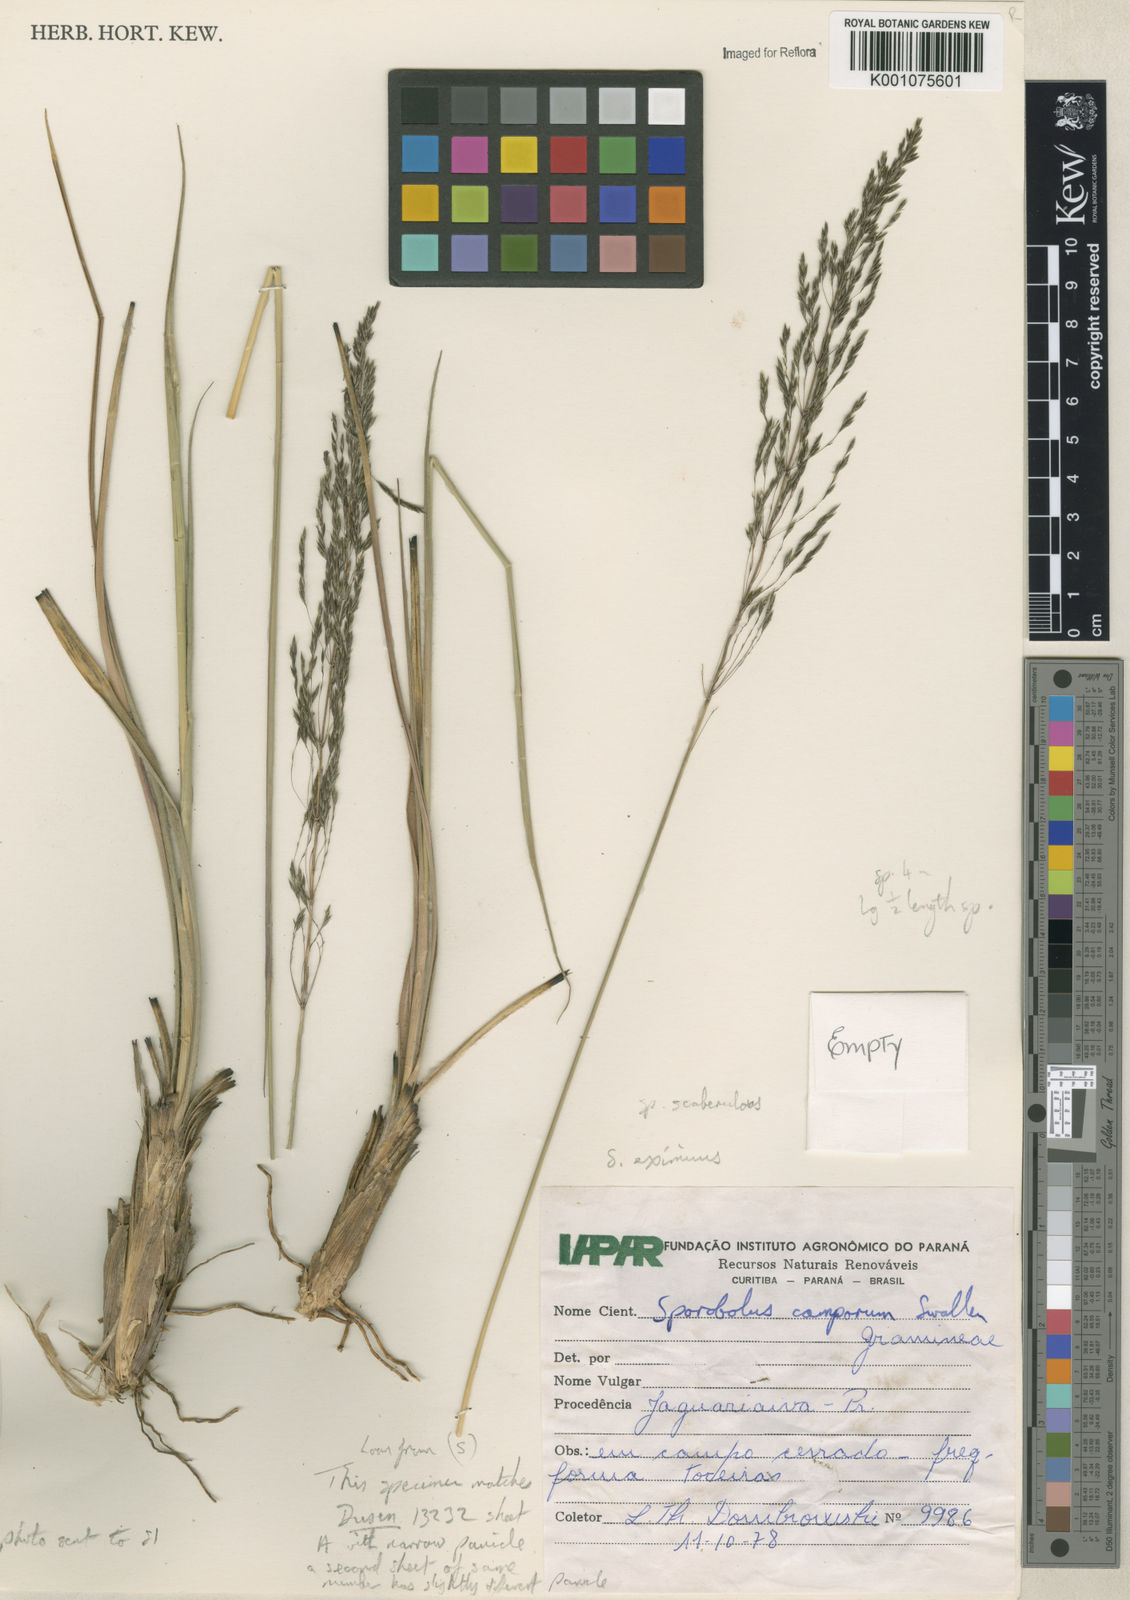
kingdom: Plantae
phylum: Tracheophyta
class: Liliopsida
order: Poales
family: Poaceae
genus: Sporobolus
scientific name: Sporobolus eximius
